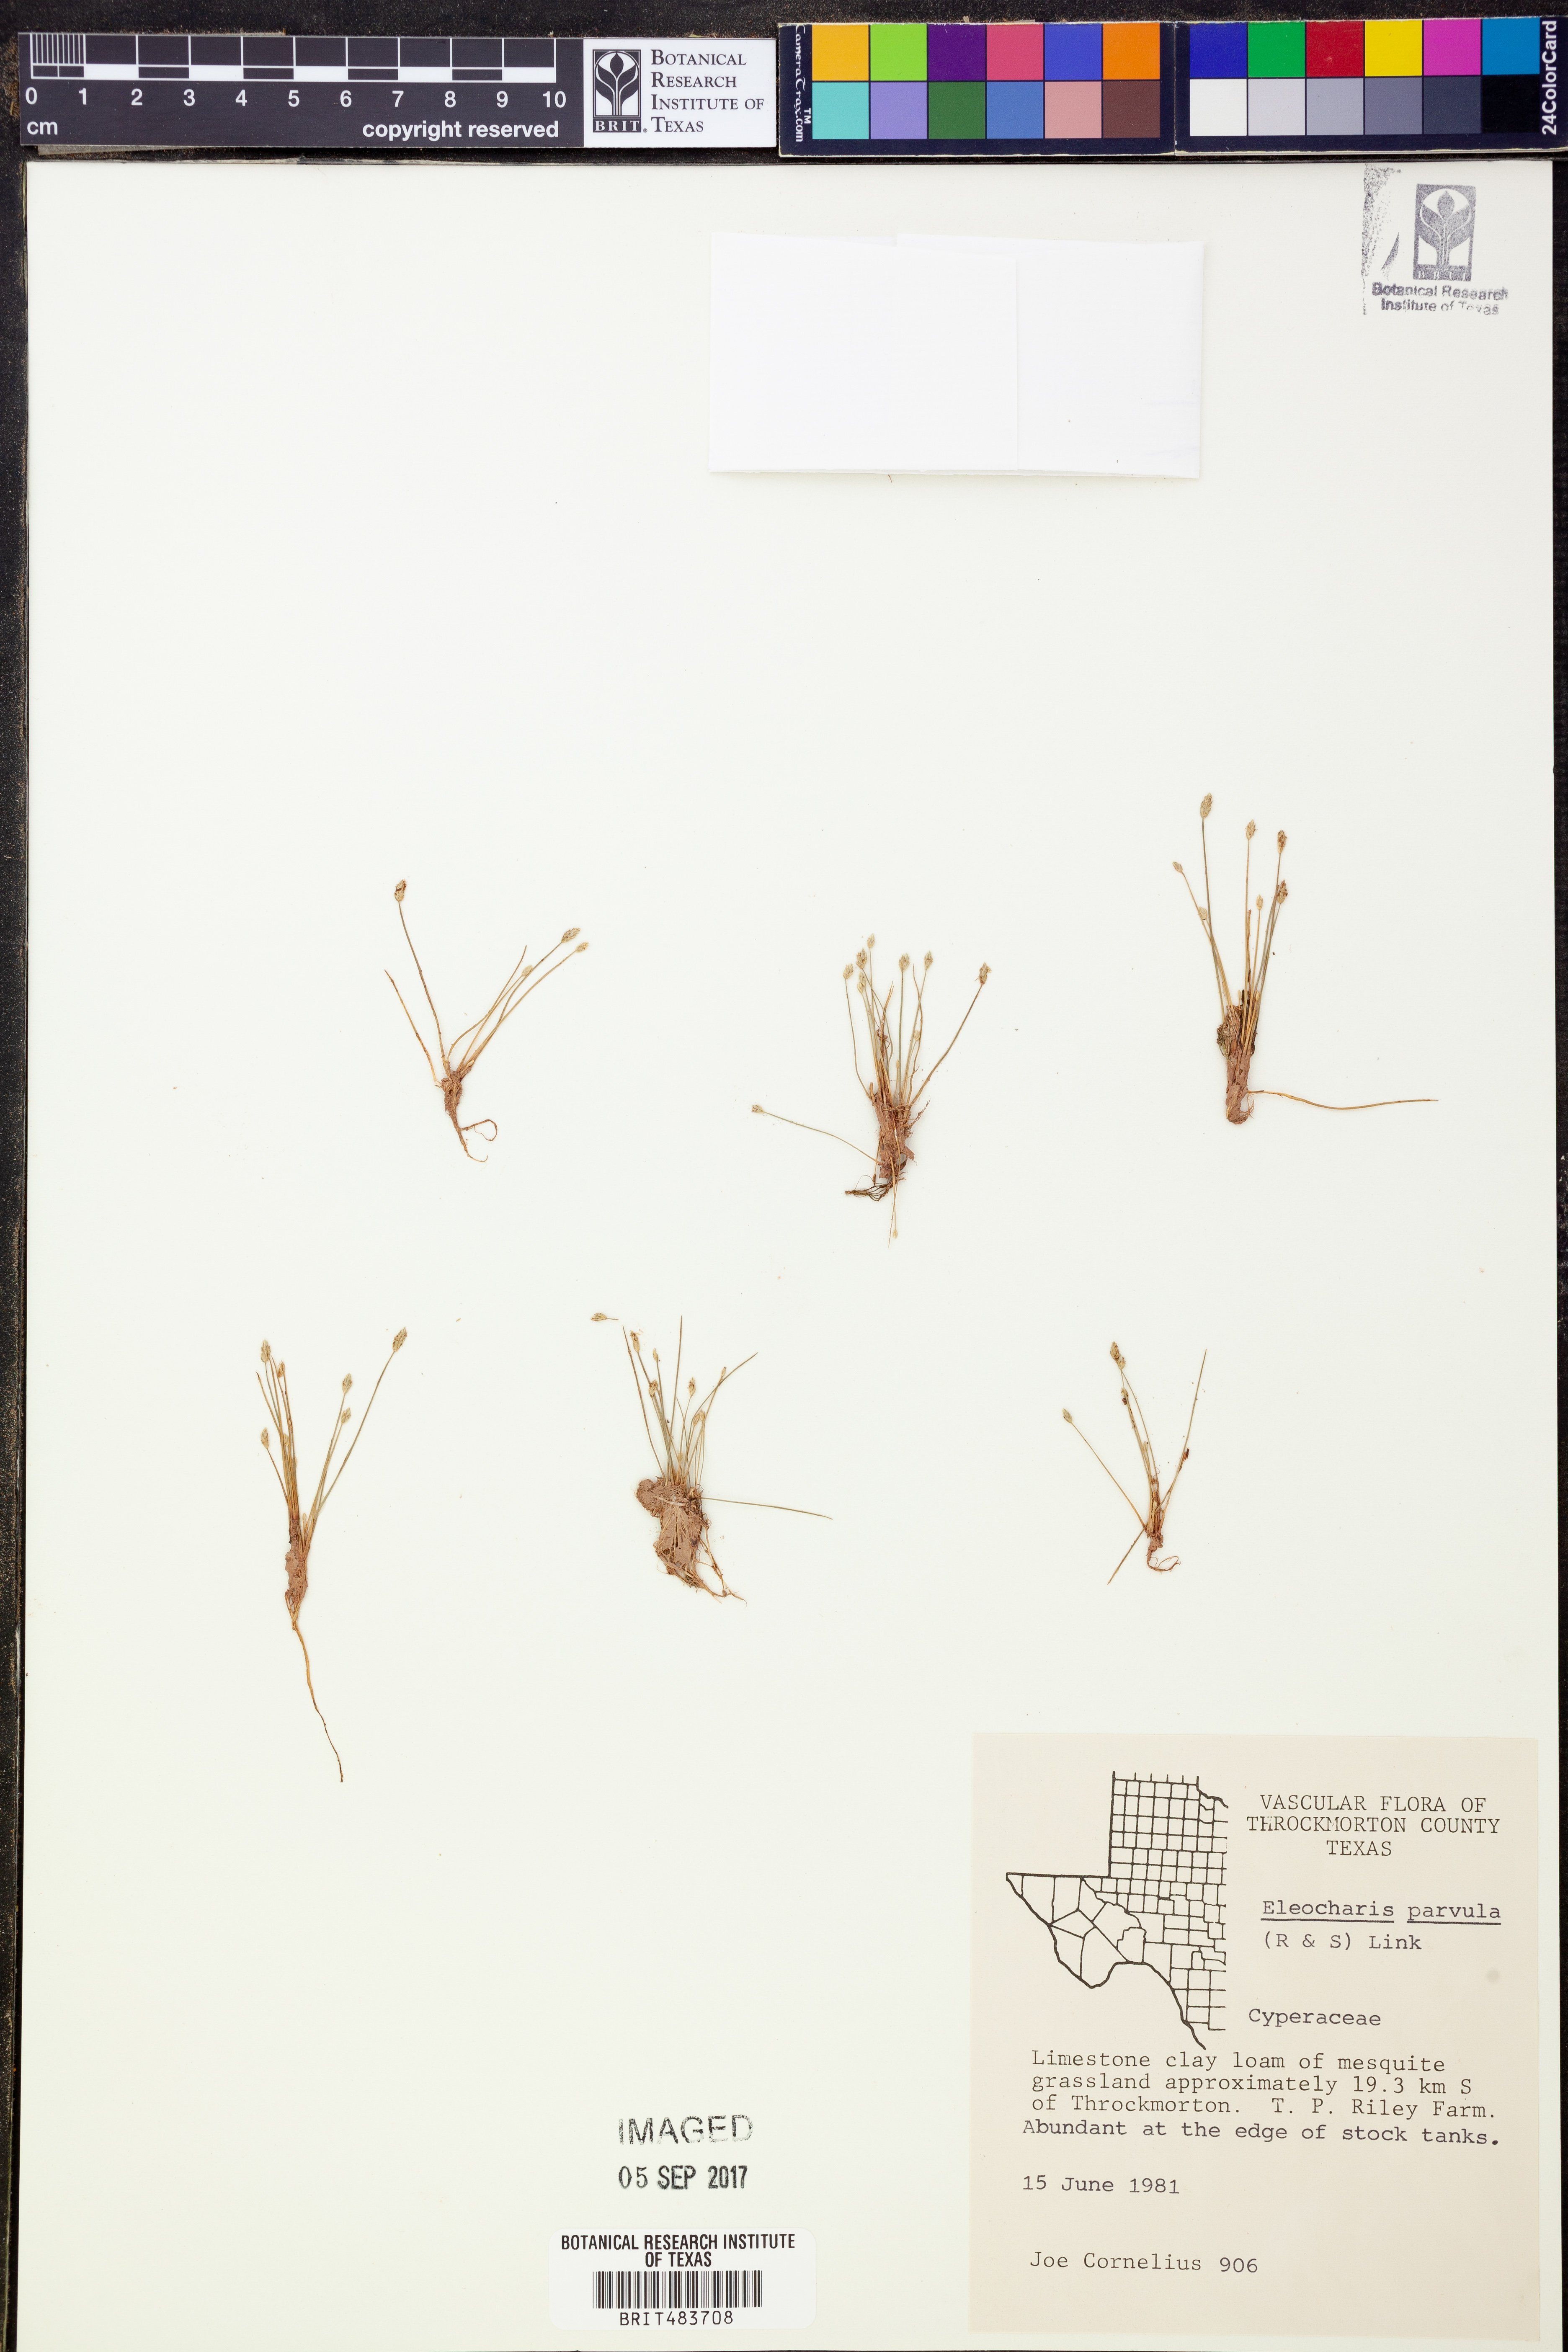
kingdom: Plantae
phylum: Tracheophyta
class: Liliopsida
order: Poales
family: Cyperaceae
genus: Eleocharis
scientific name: Eleocharis parvula
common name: Dwarf spike-rush
